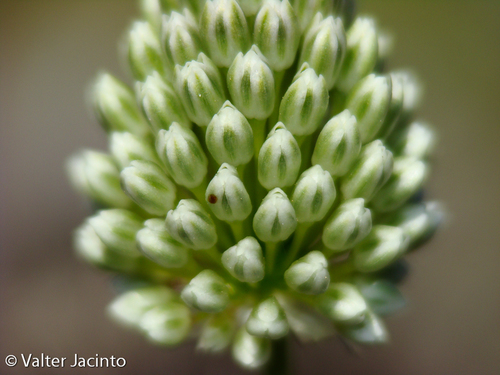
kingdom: Plantae
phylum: Tracheophyta
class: Liliopsida
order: Asparagales
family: Amaryllidaceae
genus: Allium
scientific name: Allium guttatum
